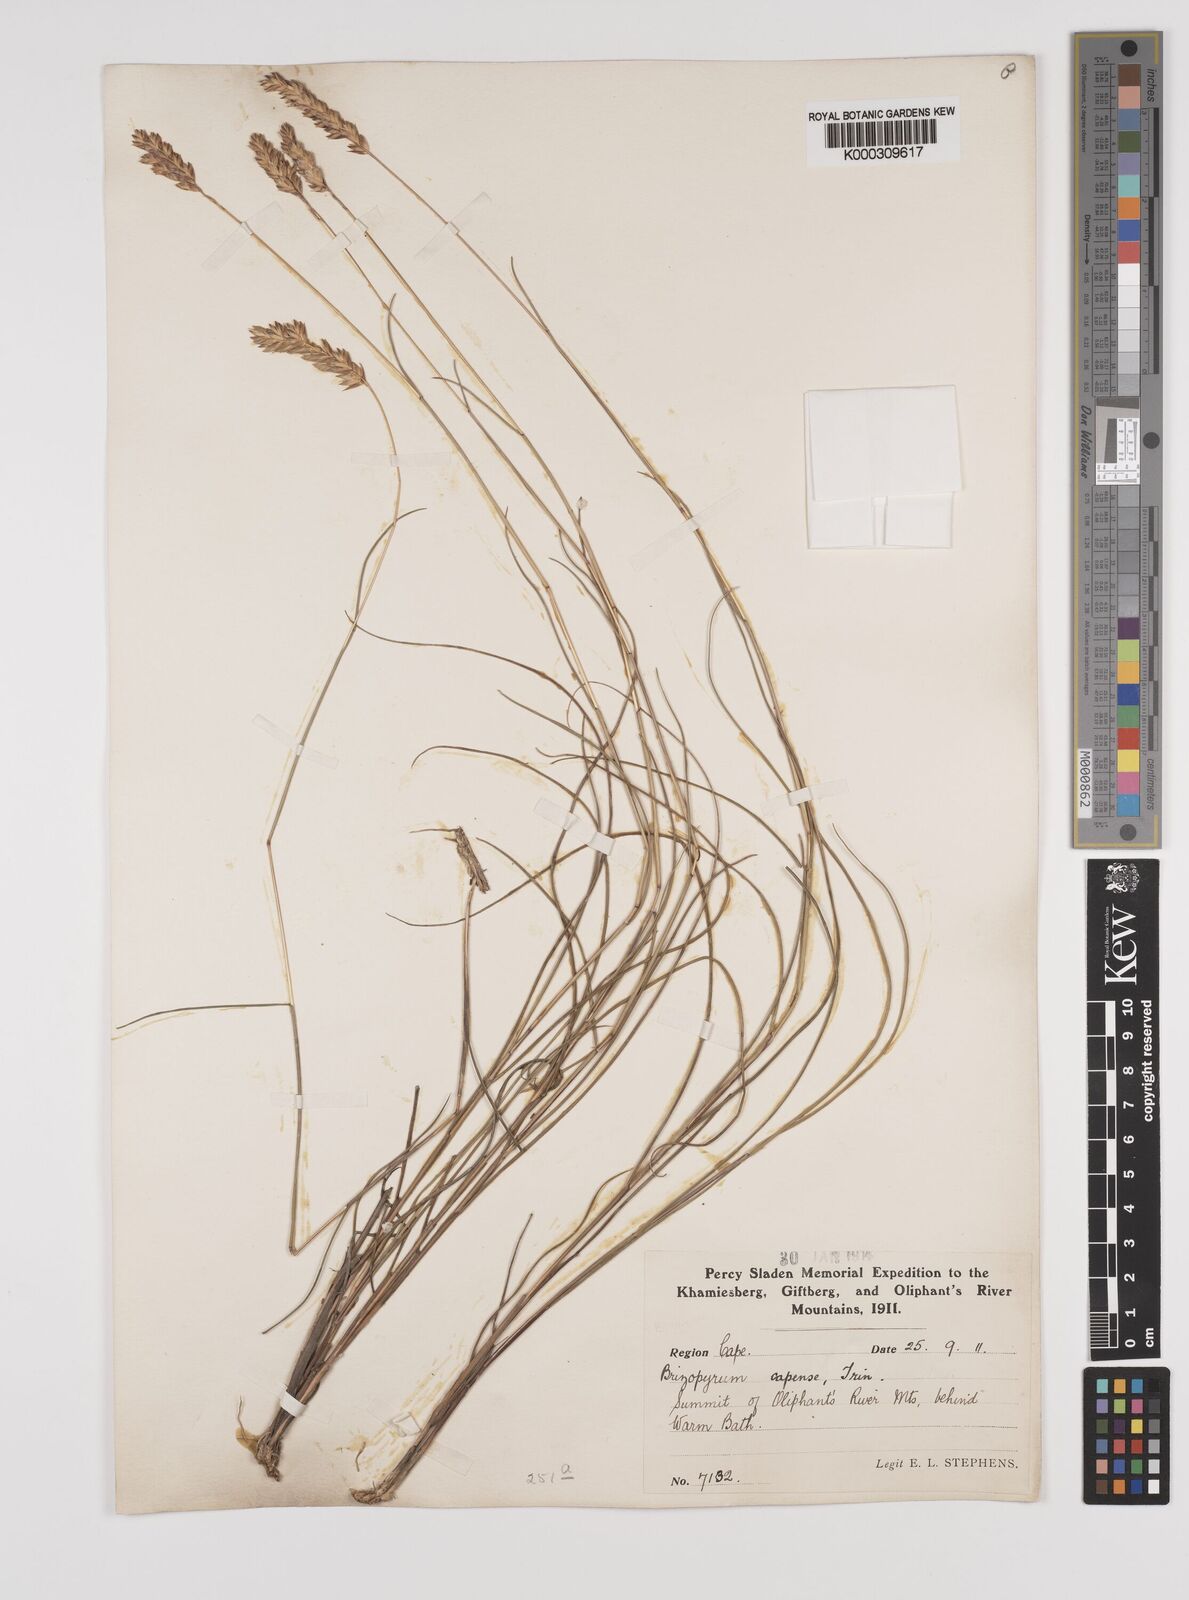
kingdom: Plantae
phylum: Tracheophyta
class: Liliopsida
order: Poales
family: Poaceae
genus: Tribolium
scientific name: Tribolium uniolae
